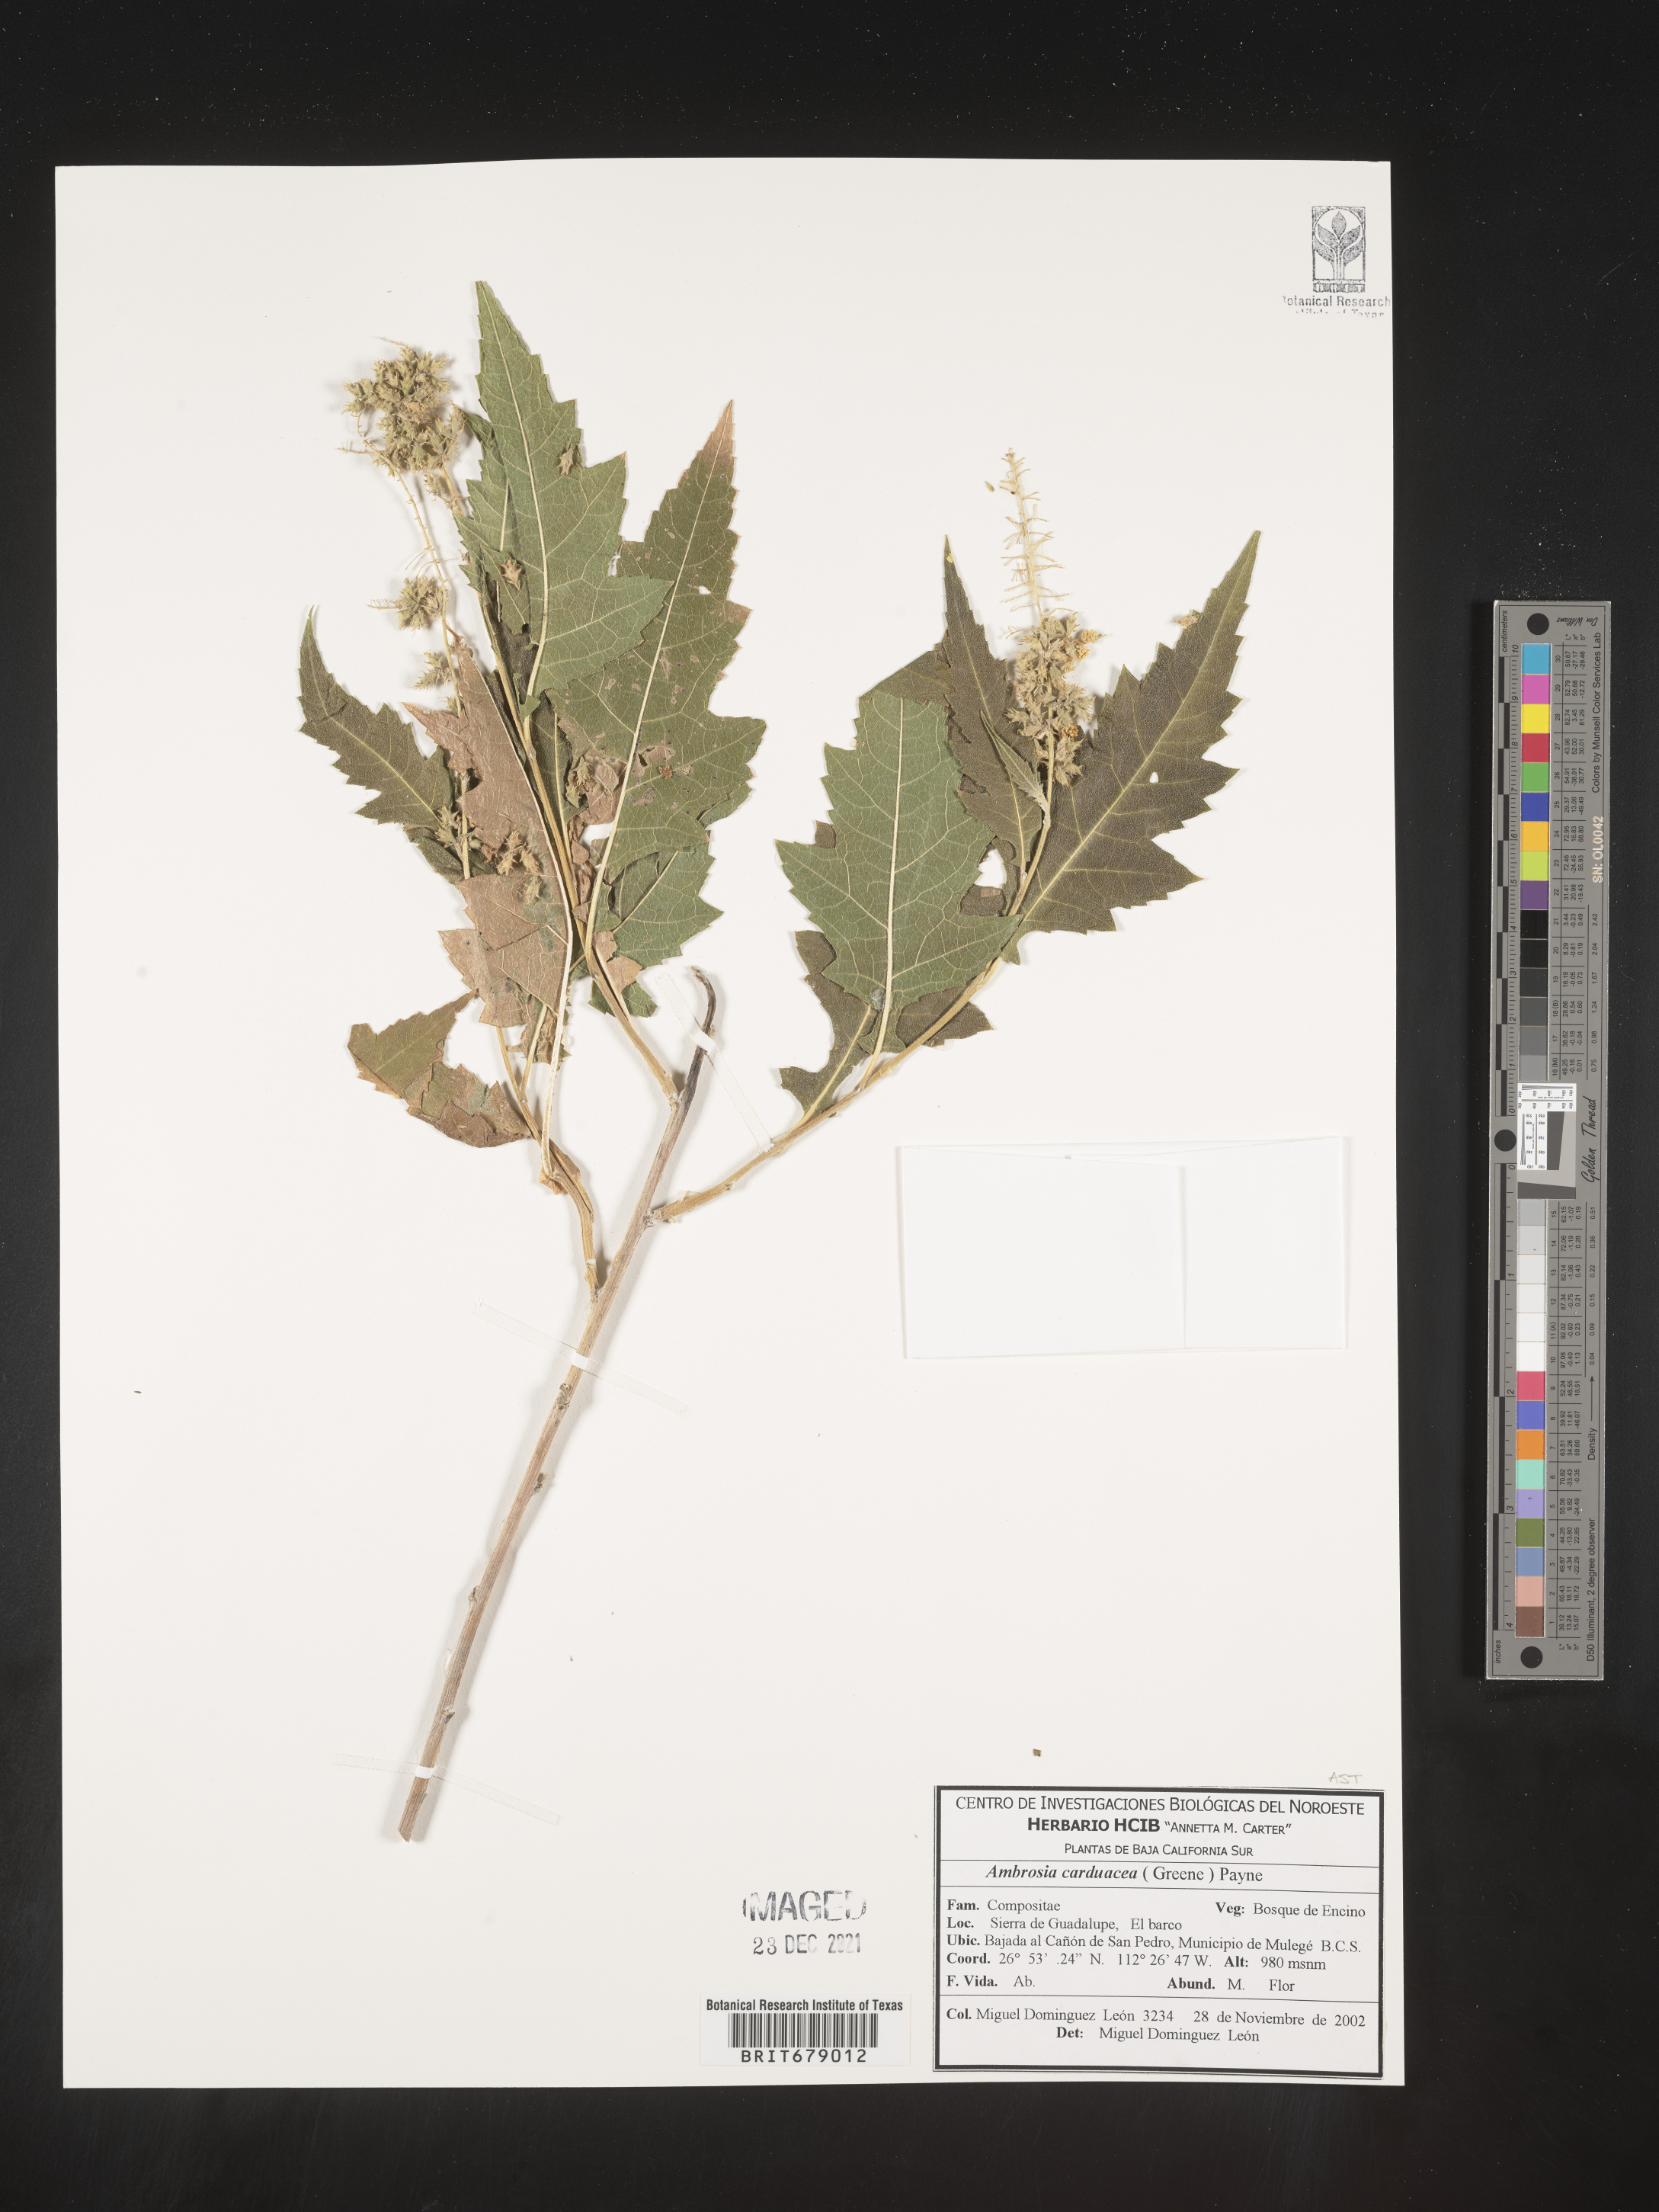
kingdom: Plantae
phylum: Tracheophyta
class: Magnoliopsida
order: Asterales
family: Asteraceae
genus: Ambrosia
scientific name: Ambrosia
